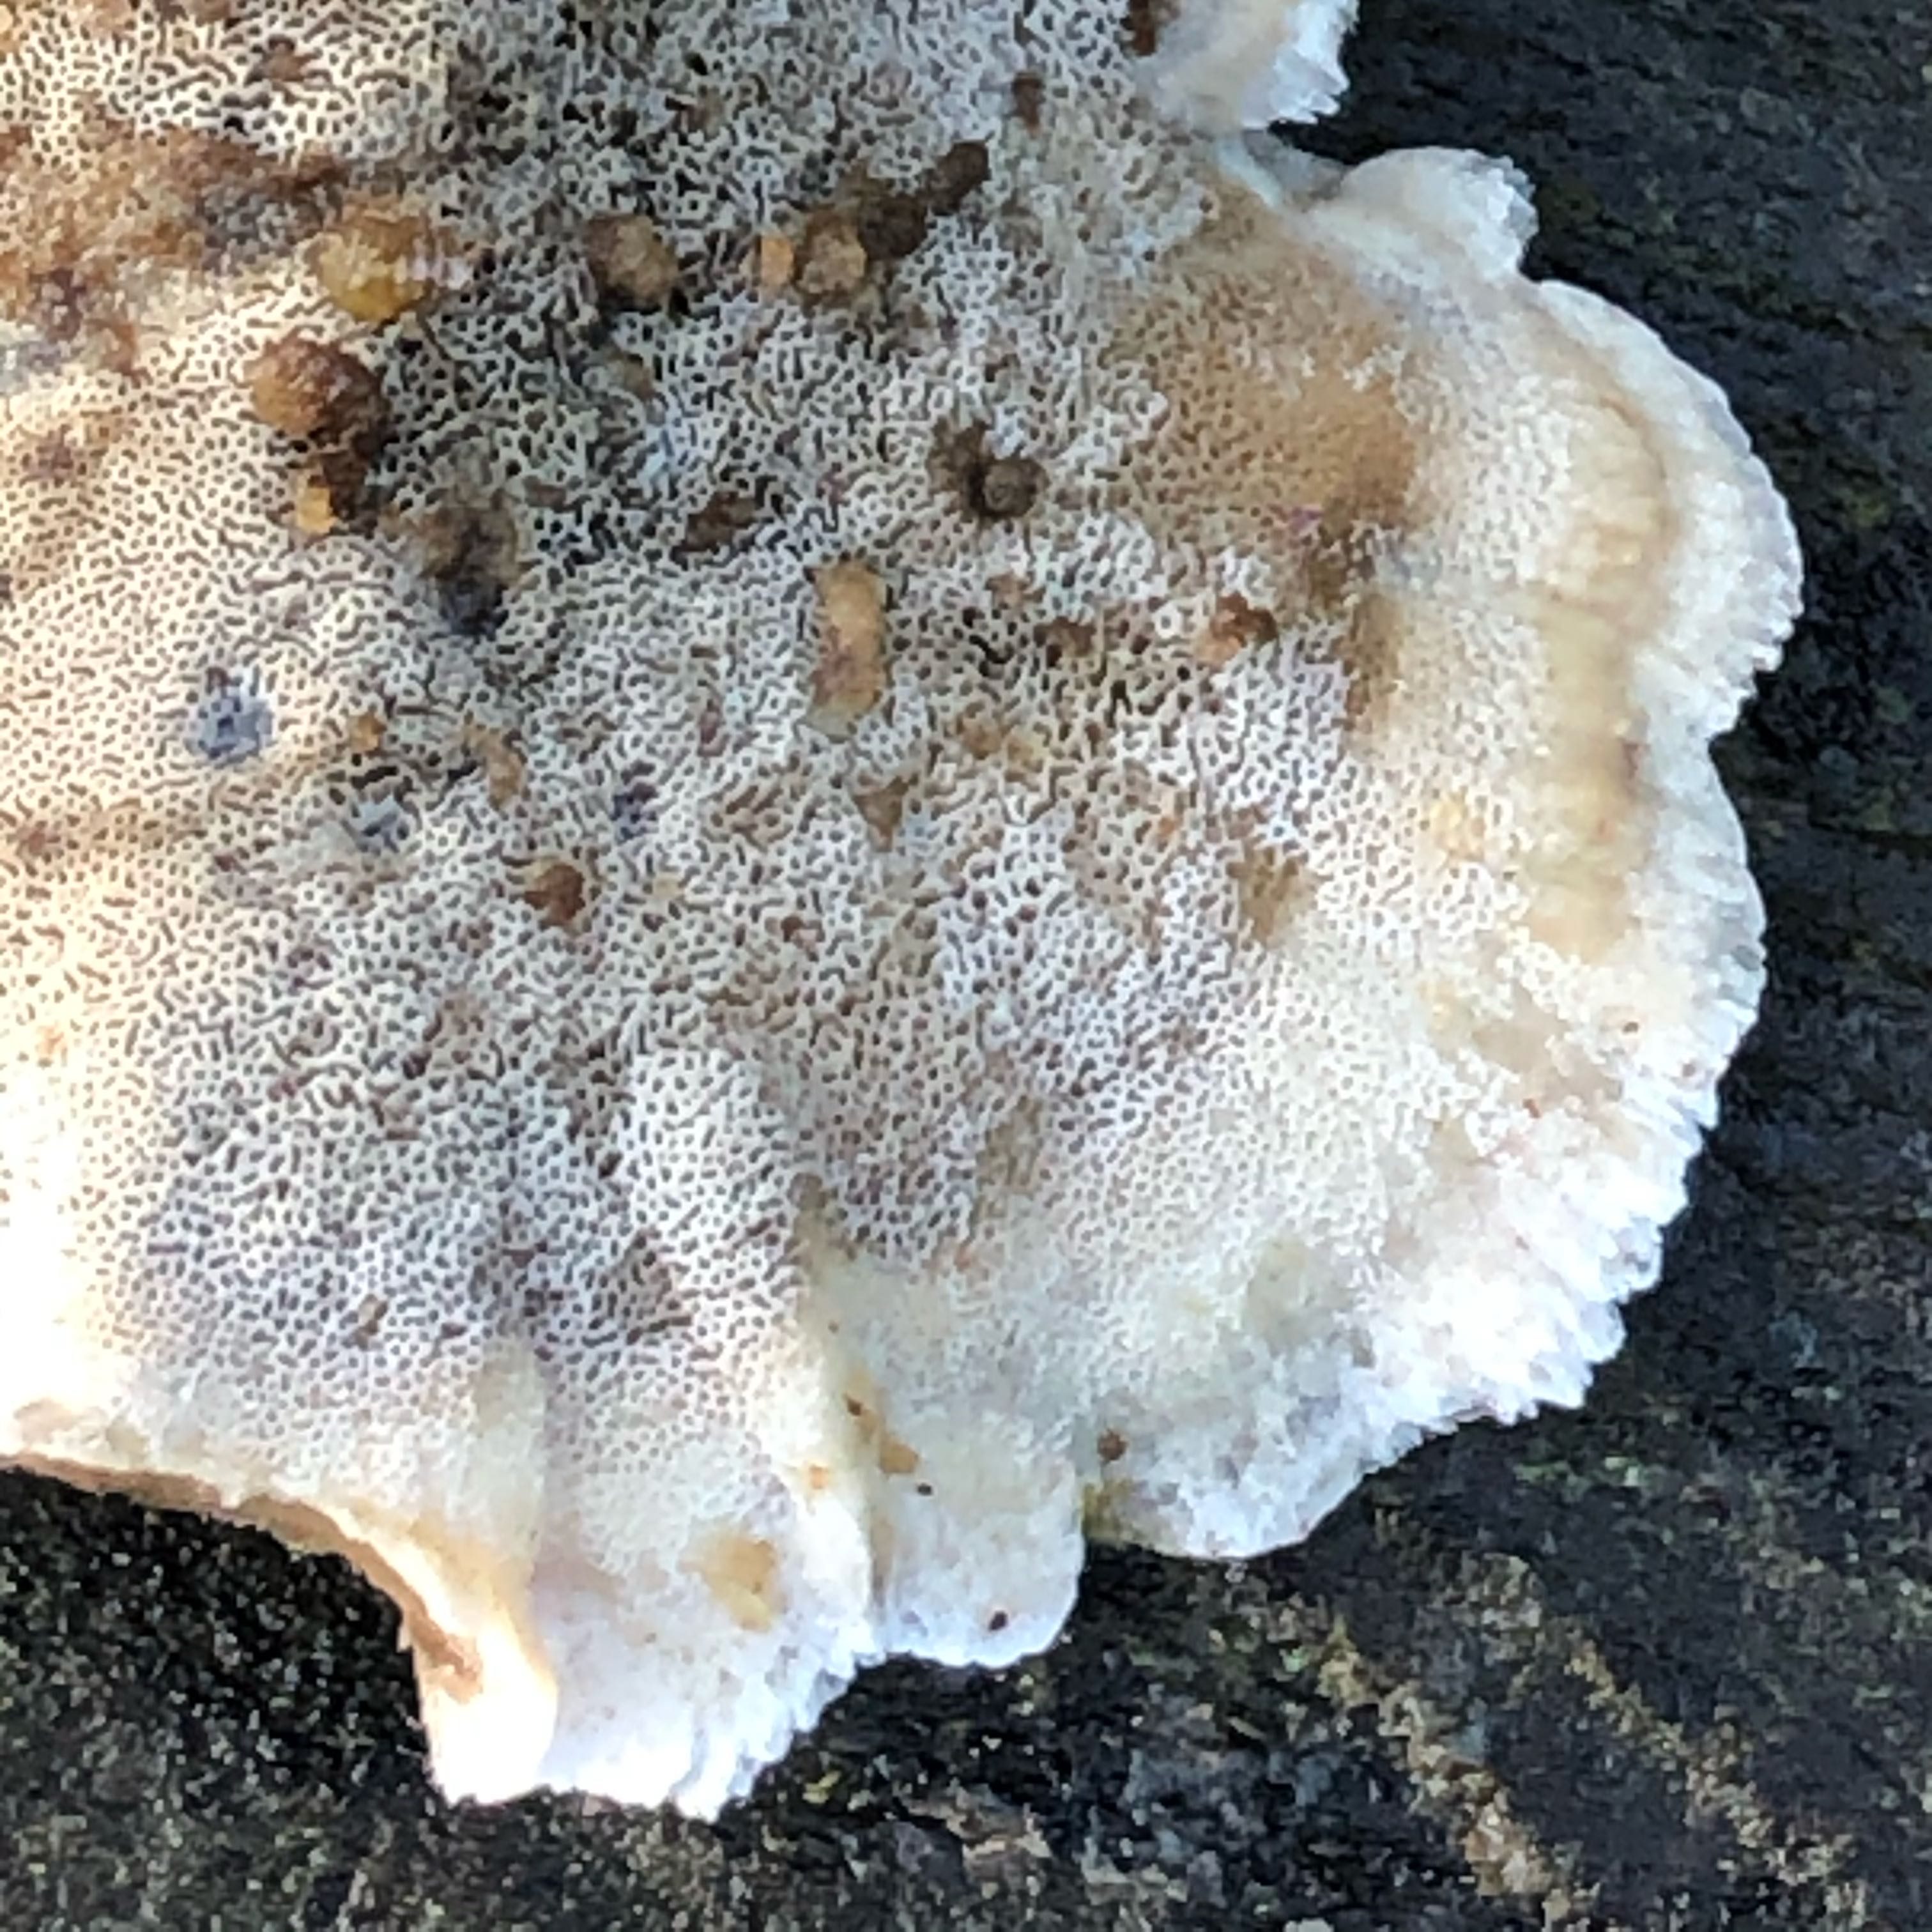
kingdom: Fungi
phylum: Basidiomycota
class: Agaricomycetes
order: Polyporales
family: Polyporaceae
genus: Trametes
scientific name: Trametes versicolor
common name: broget læderporesvamp
